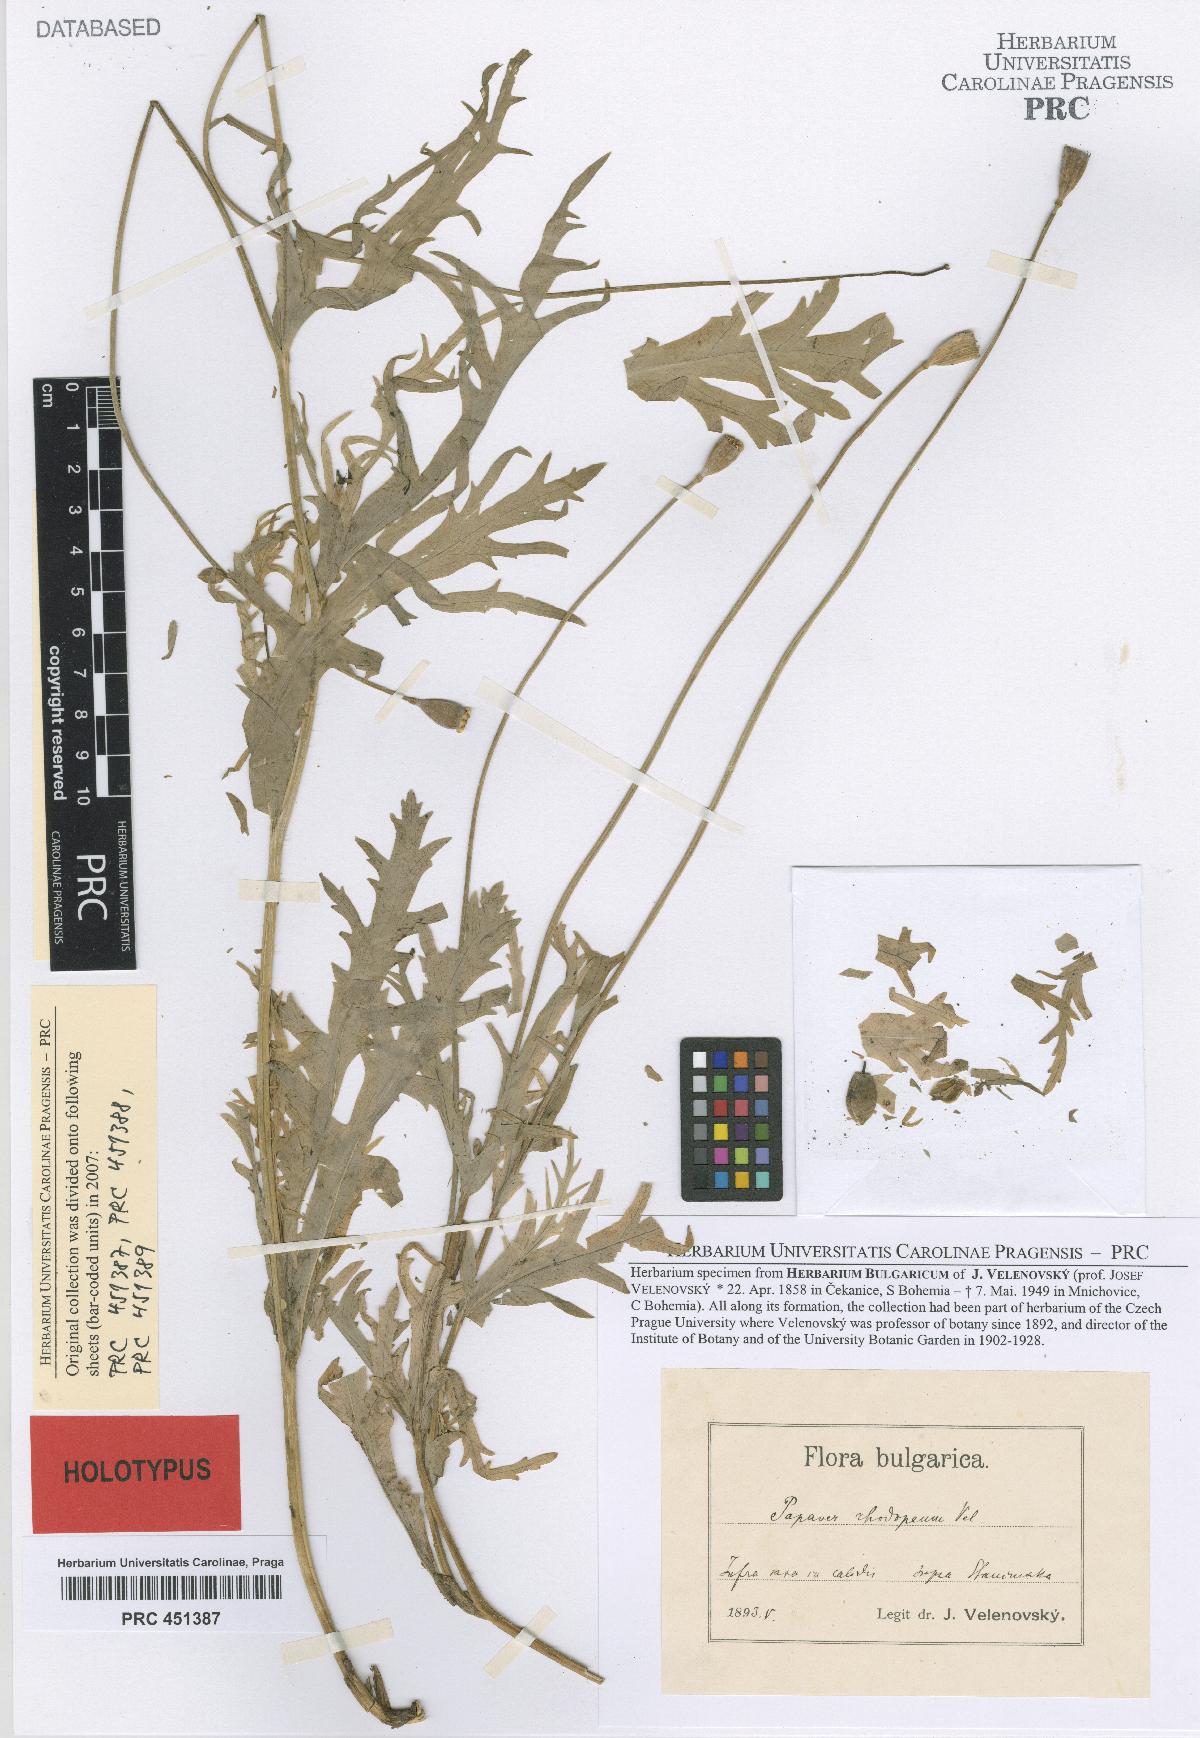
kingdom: Plantae
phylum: Tracheophyta
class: Magnoliopsida
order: Ranunculales
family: Papaveraceae
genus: Papaver
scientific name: Papaver laevigatum
